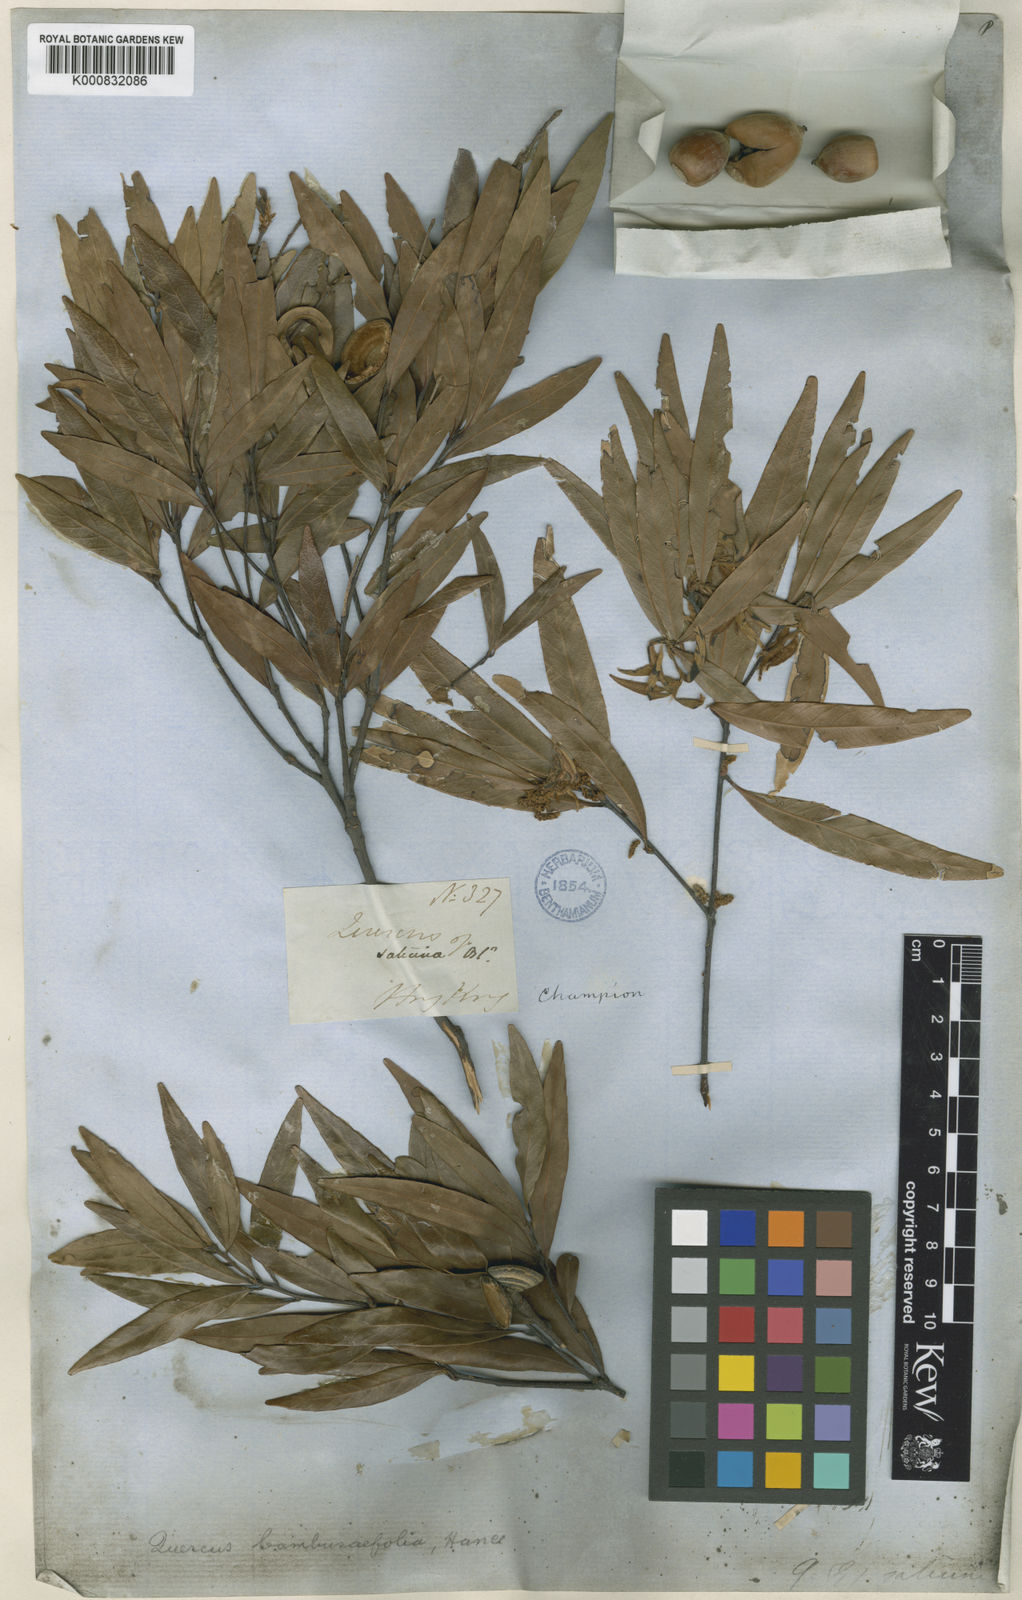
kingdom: Plantae
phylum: Tracheophyta
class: Magnoliopsida
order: Fagales
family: Fagaceae
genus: Quercus
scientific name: Quercus bambusifolia
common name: Bamboo-leaf oak
